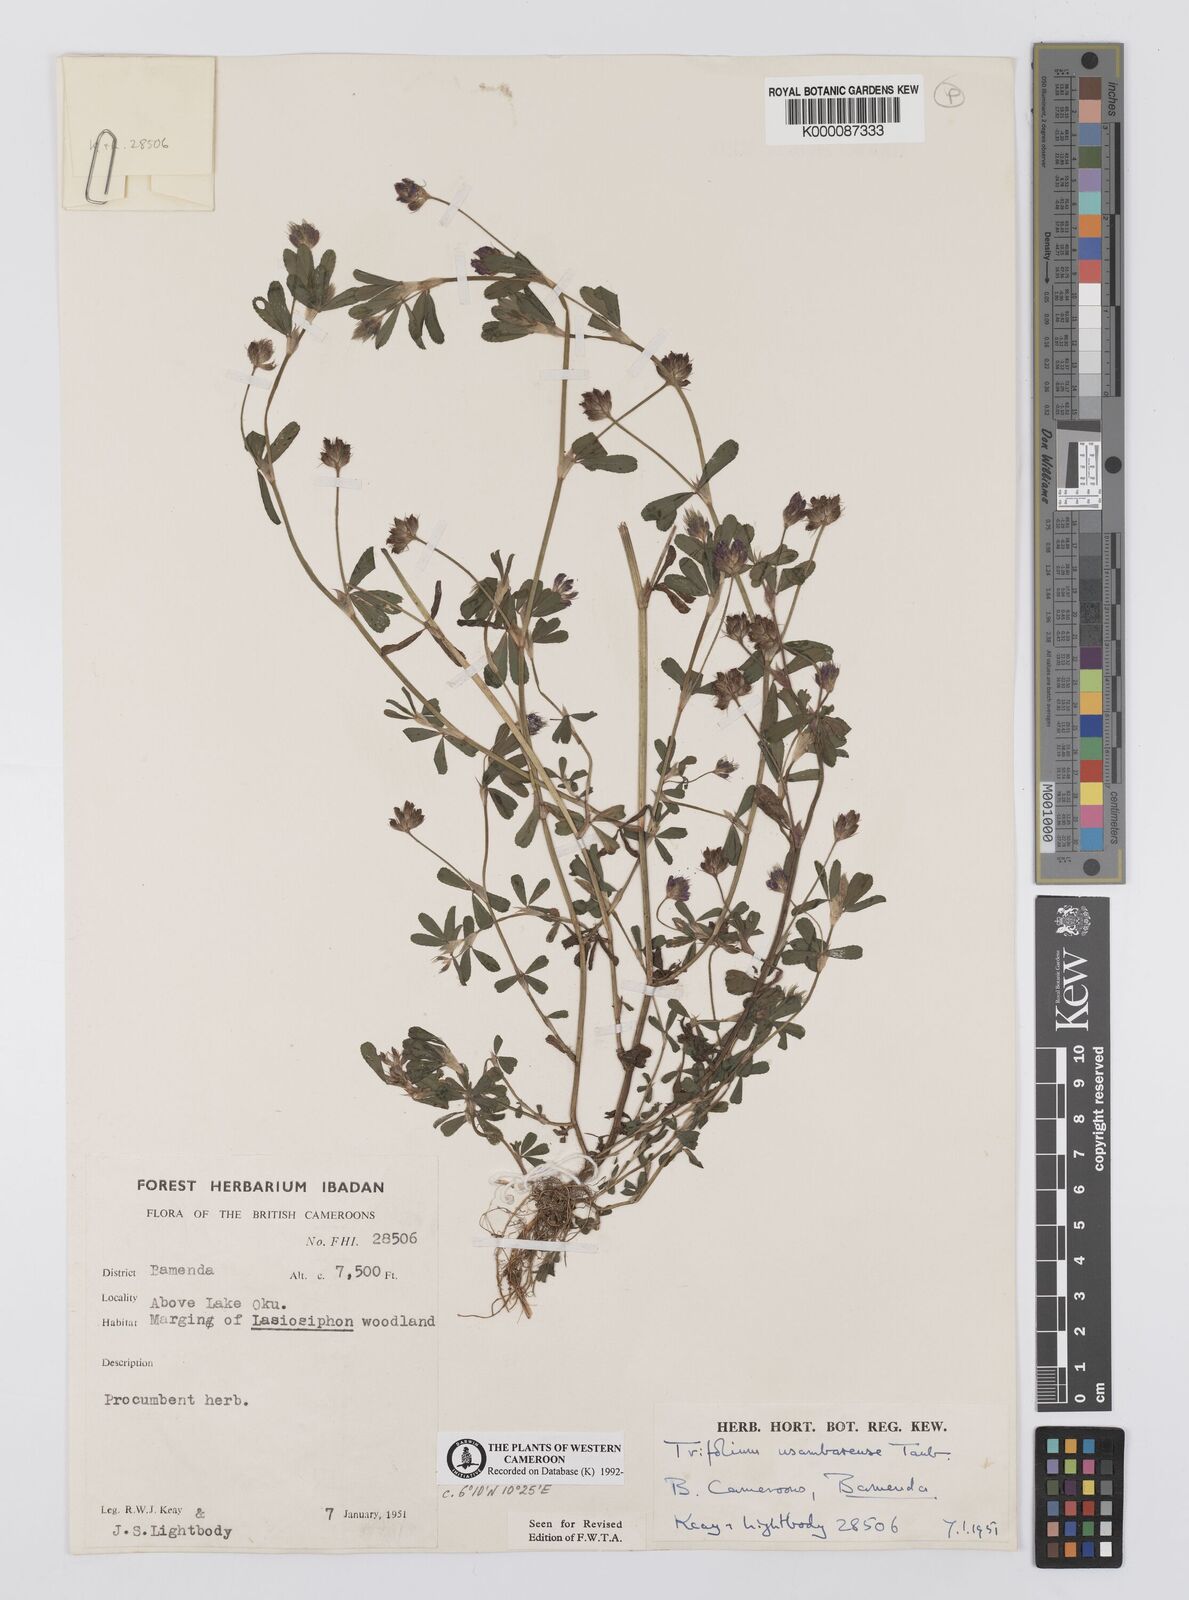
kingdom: Plantae
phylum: Tracheophyta
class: Magnoliopsida
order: Fabales
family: Fabaceae
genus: Trifolium
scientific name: Trifolium usambarense
